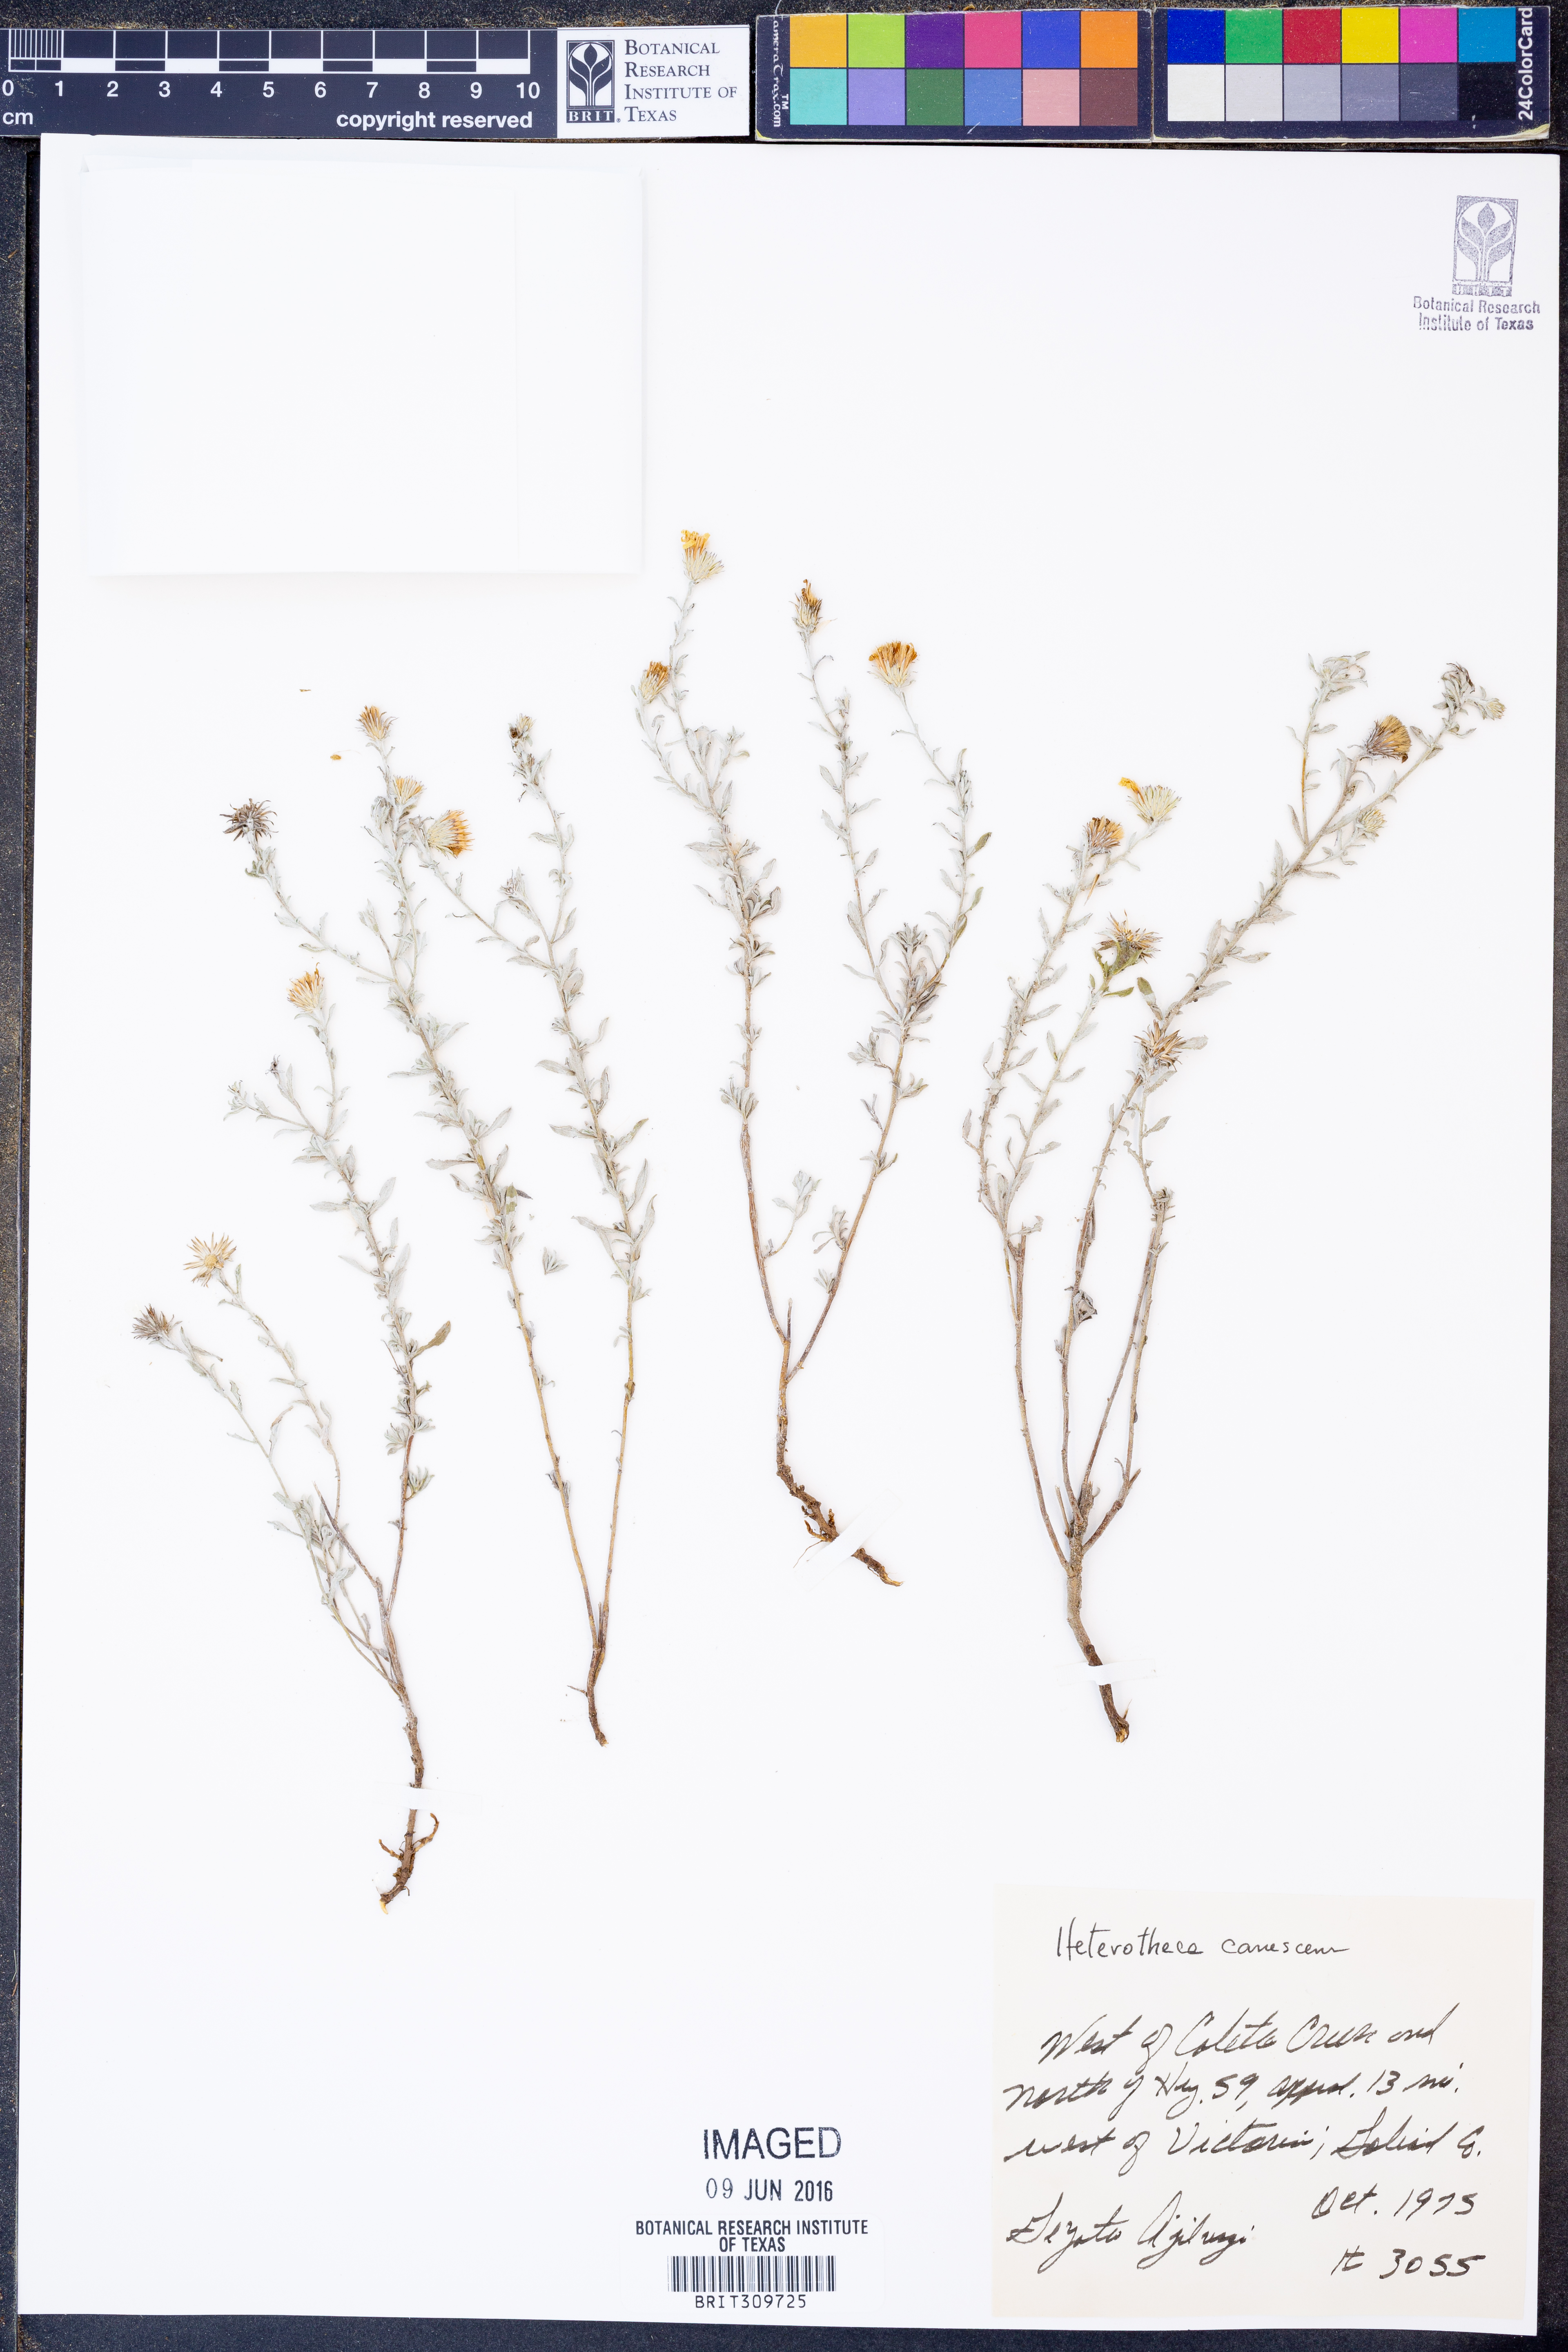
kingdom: Plantae
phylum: Tracheophyta
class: Magnoliopsida
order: Asterales
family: Asteraceae
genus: Heterotheca
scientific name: Heterotheca canescens
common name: Hoary golden-aster
